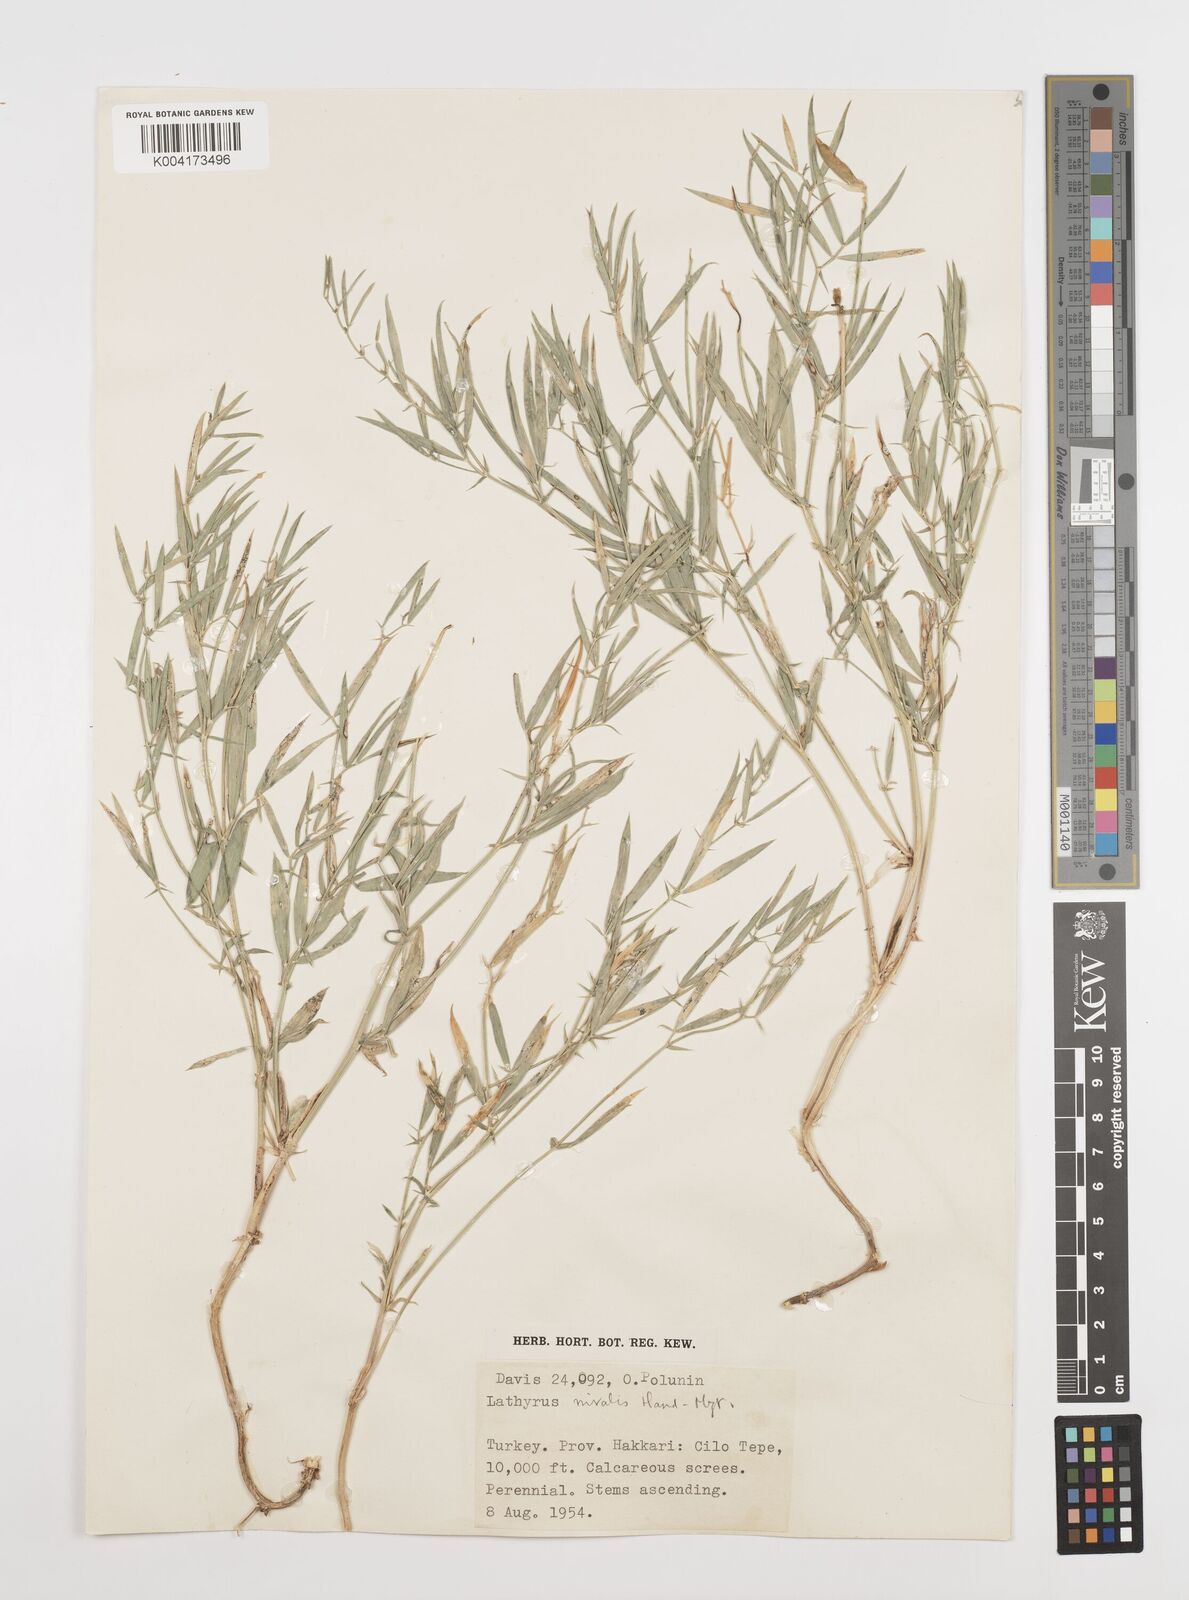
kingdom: Plantae
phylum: Tracheophyta
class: Magnoliopsida
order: Fabales
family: Fabaceae
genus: Lathyrus
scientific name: Lathyrus nivalis
